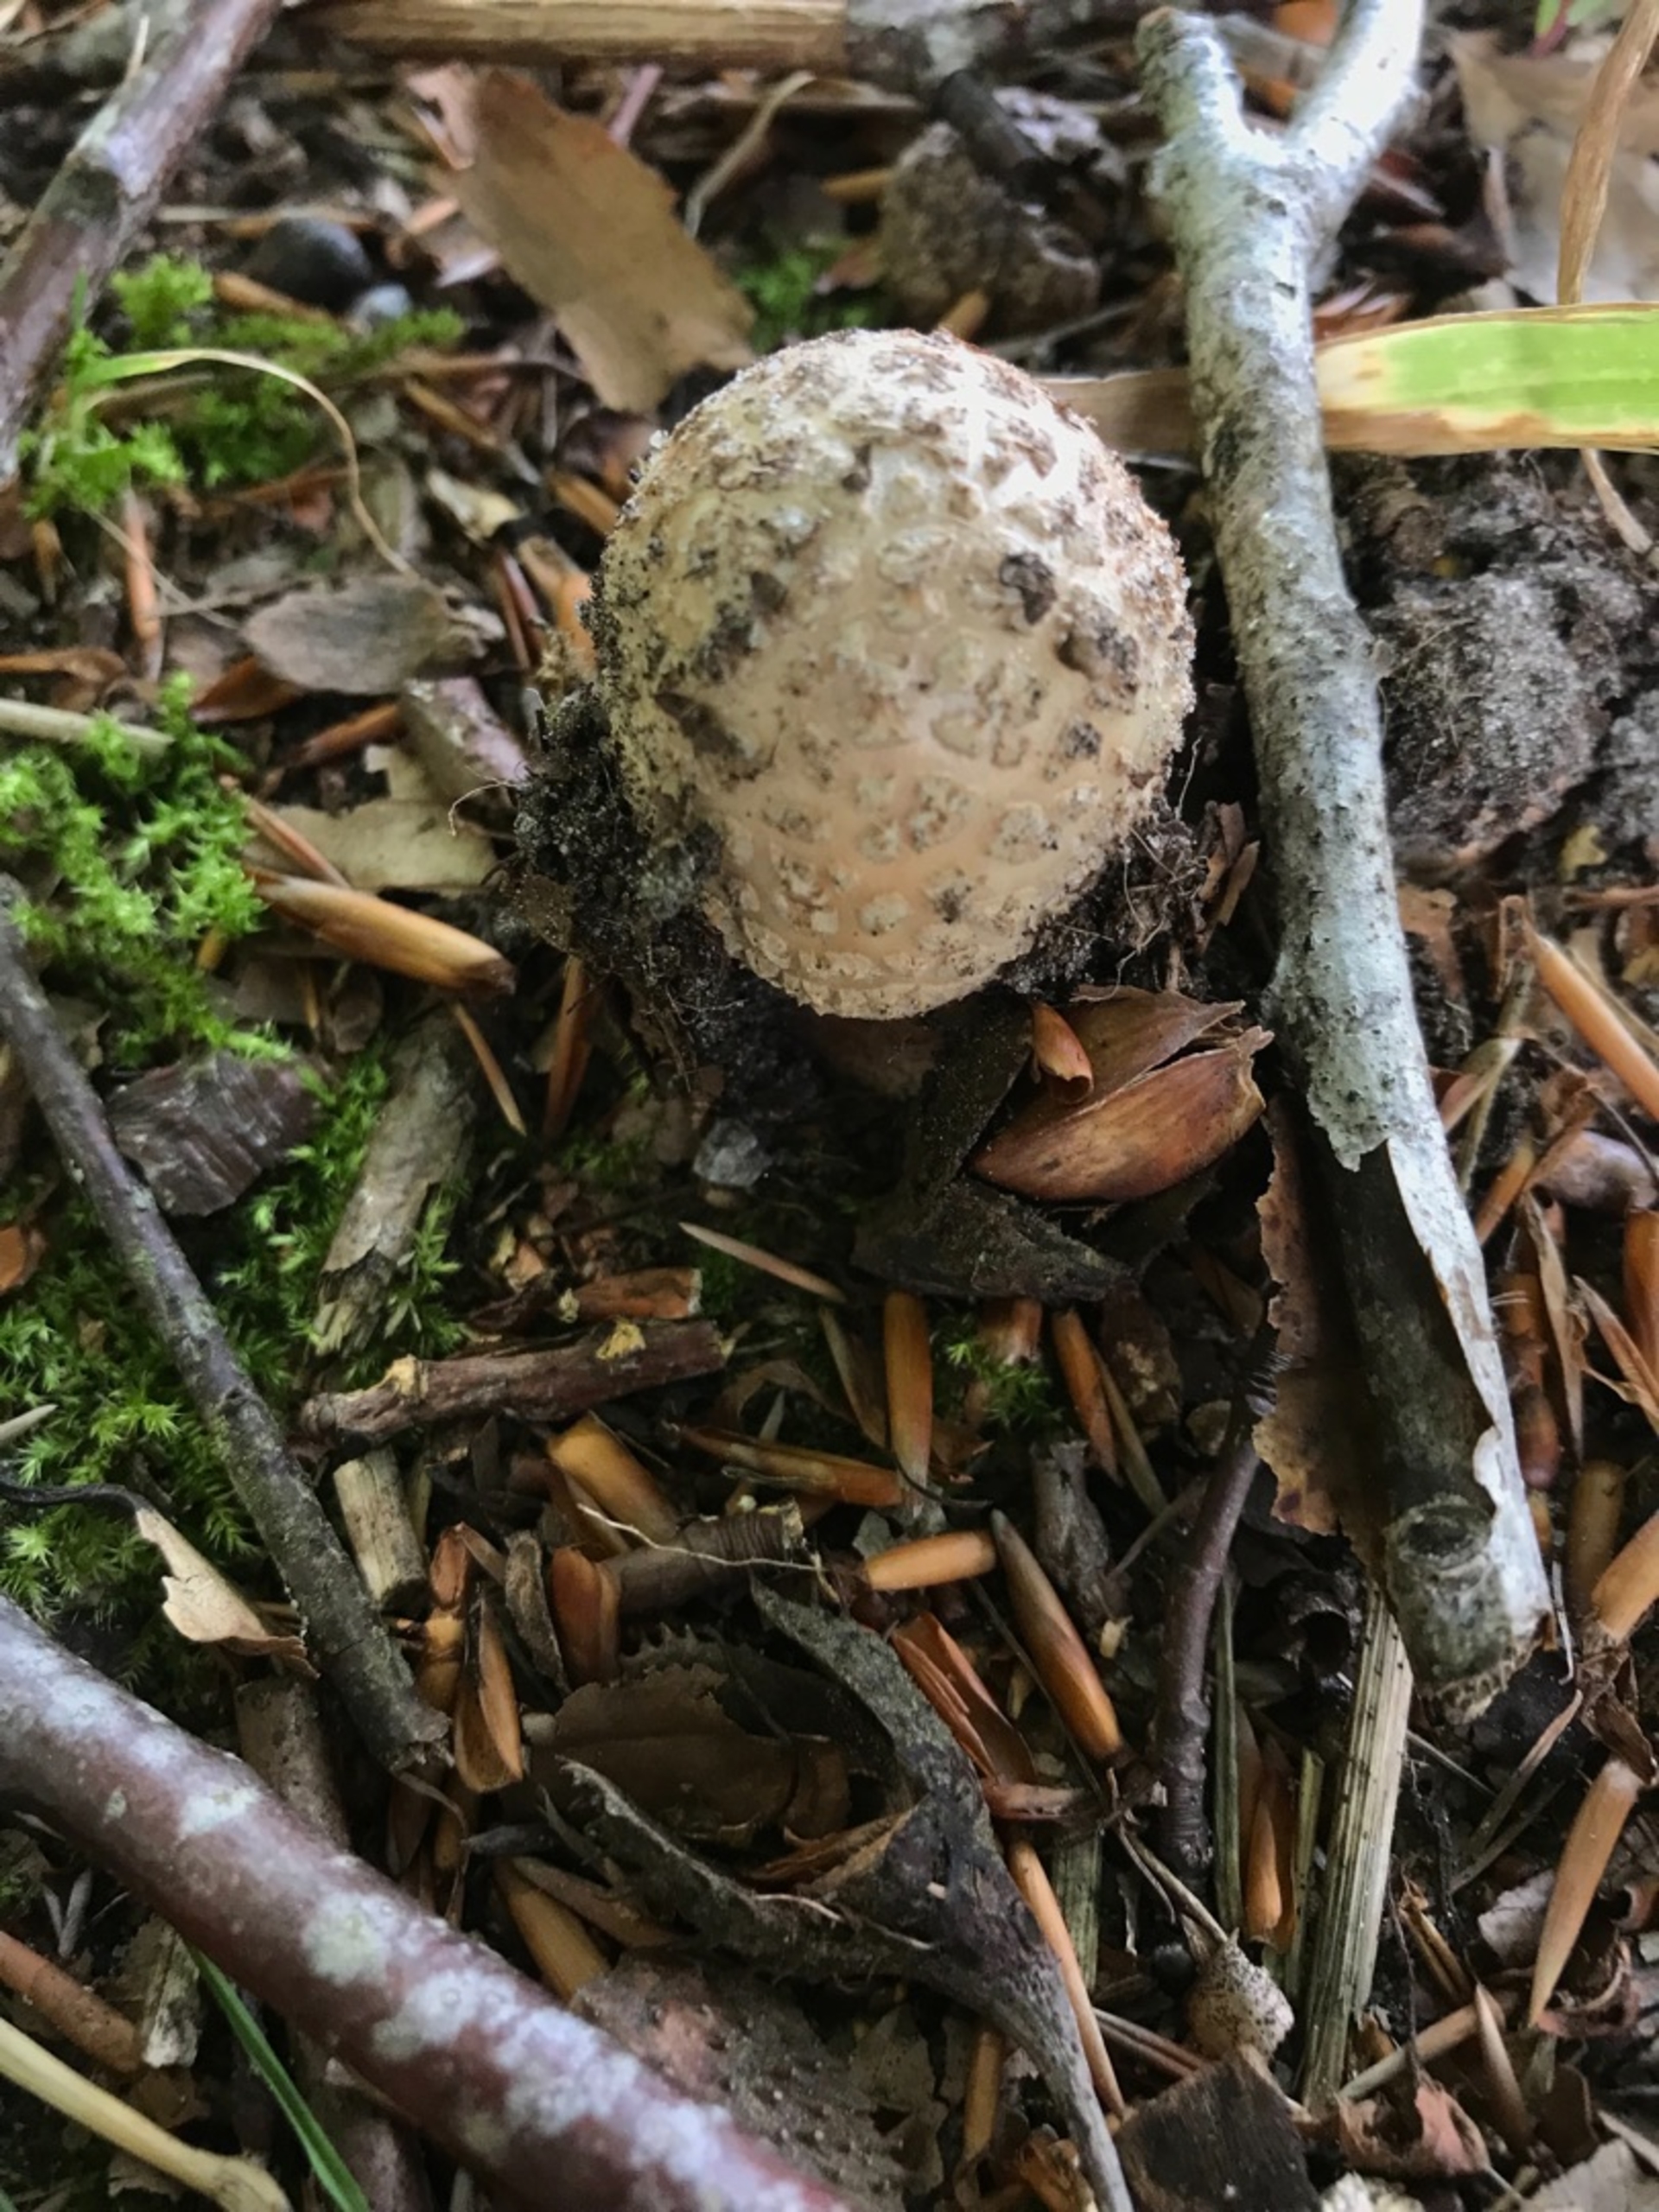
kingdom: Fungi
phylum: Basidiomycota
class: Agaricomycetes
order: Agaricales
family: Amanitaceae
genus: Amanita
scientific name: Amanita rubescens
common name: Rødmende fluesvamp
